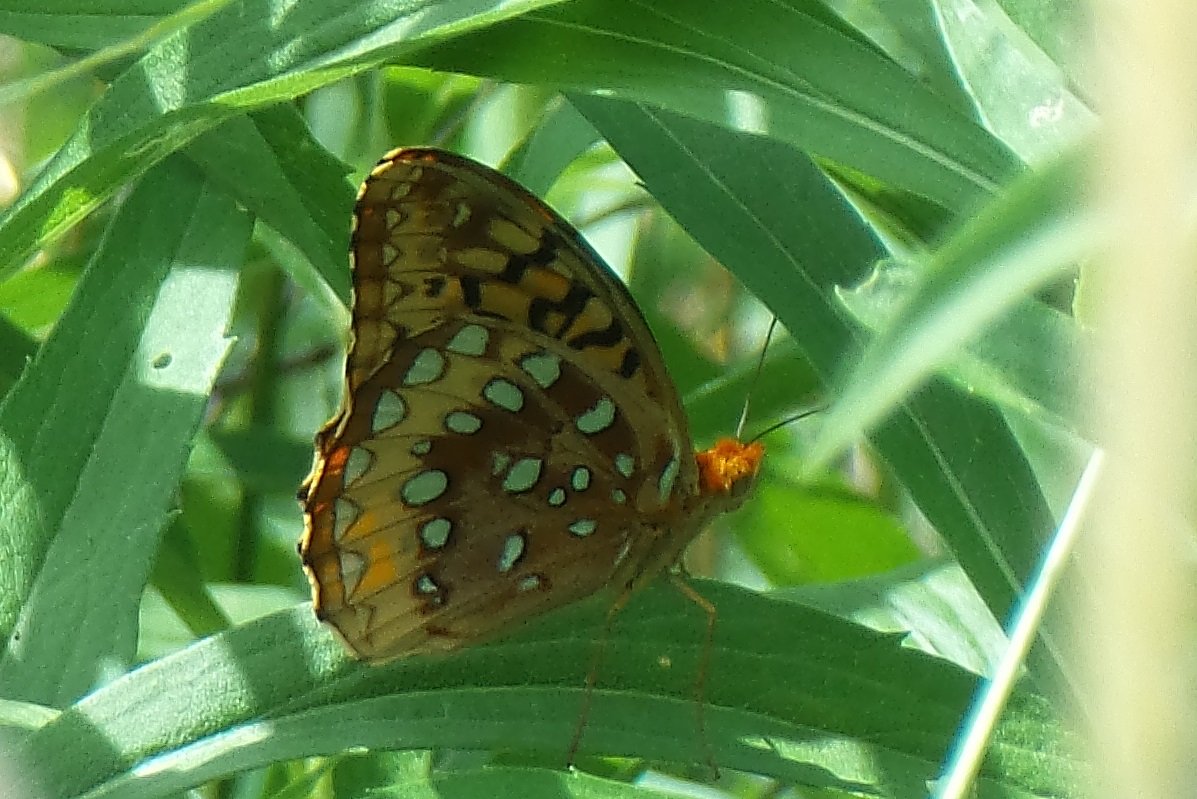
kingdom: Animalia
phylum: Arthropoda
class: Insecta
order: Lepidoptera
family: Nymphalidae
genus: Speyeria
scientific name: Speyeria cybele
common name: Great Spangled Fritillary
